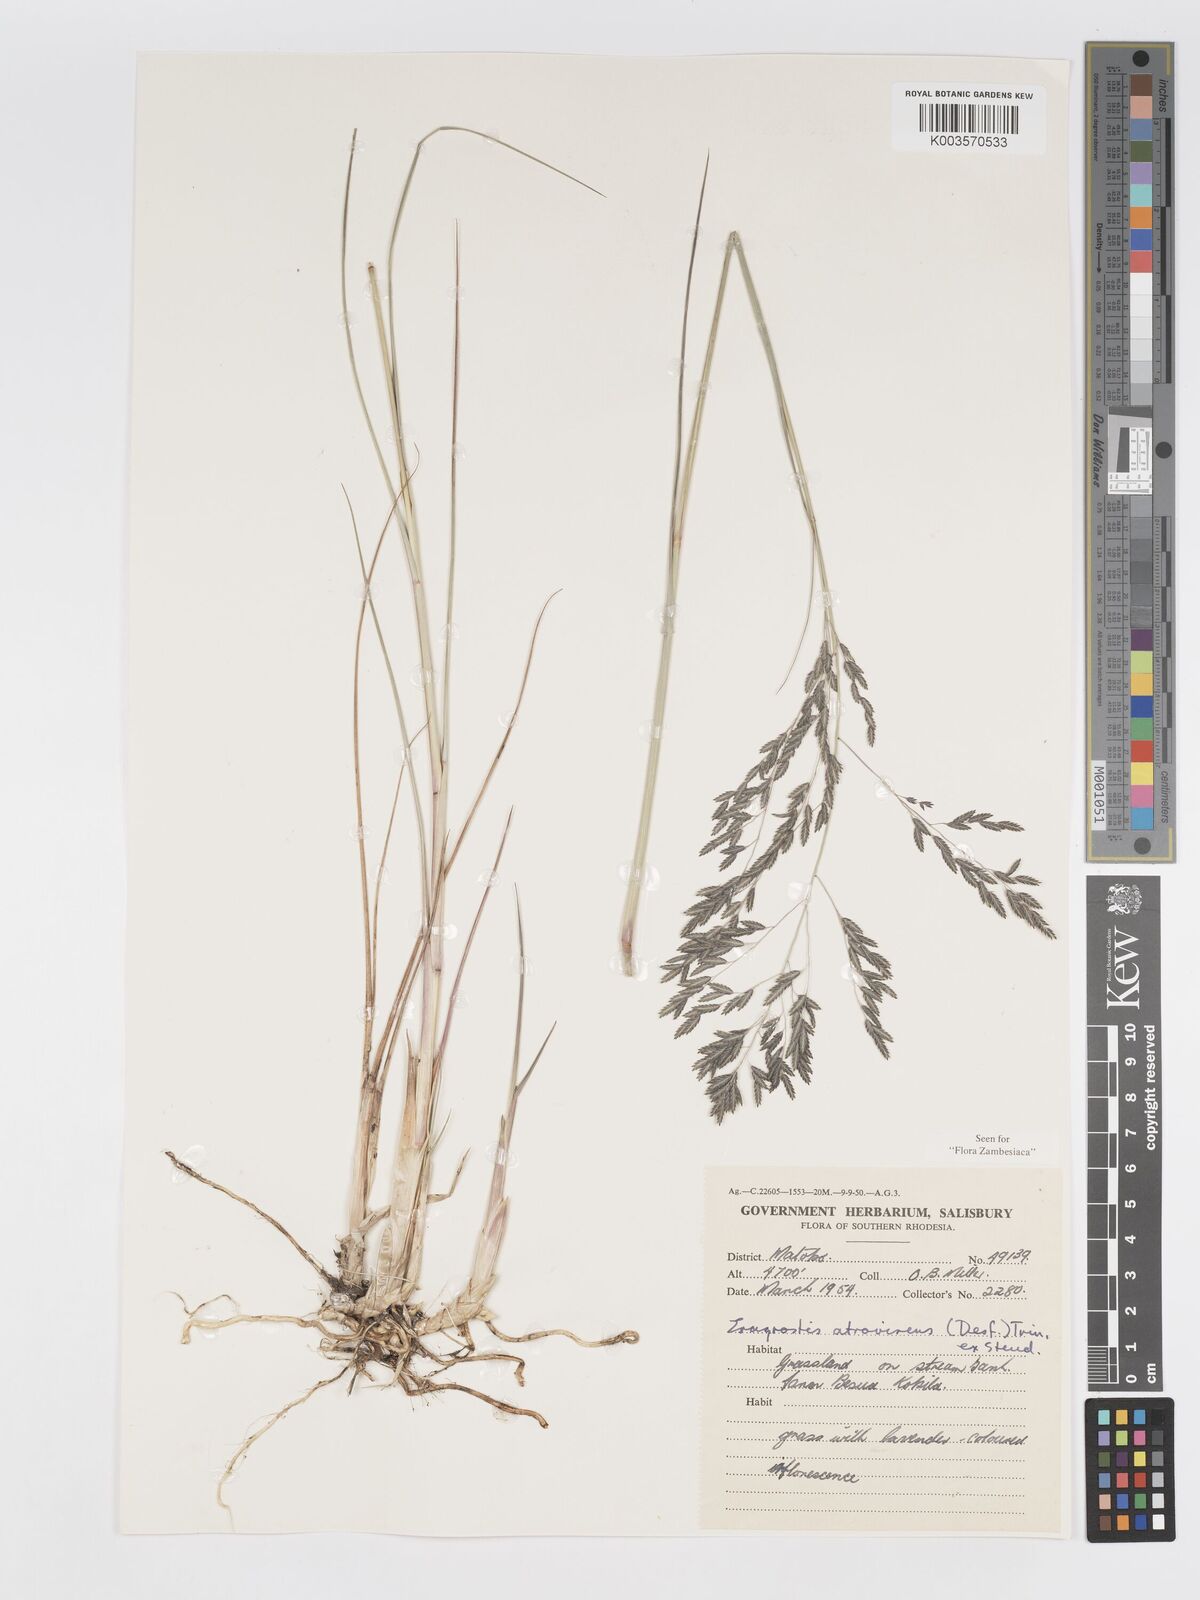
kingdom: Plantae
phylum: Tracheophyta
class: Liliopsida
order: Poales
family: Poaceae
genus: Eragrostis
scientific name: Eragrostis inamoena
